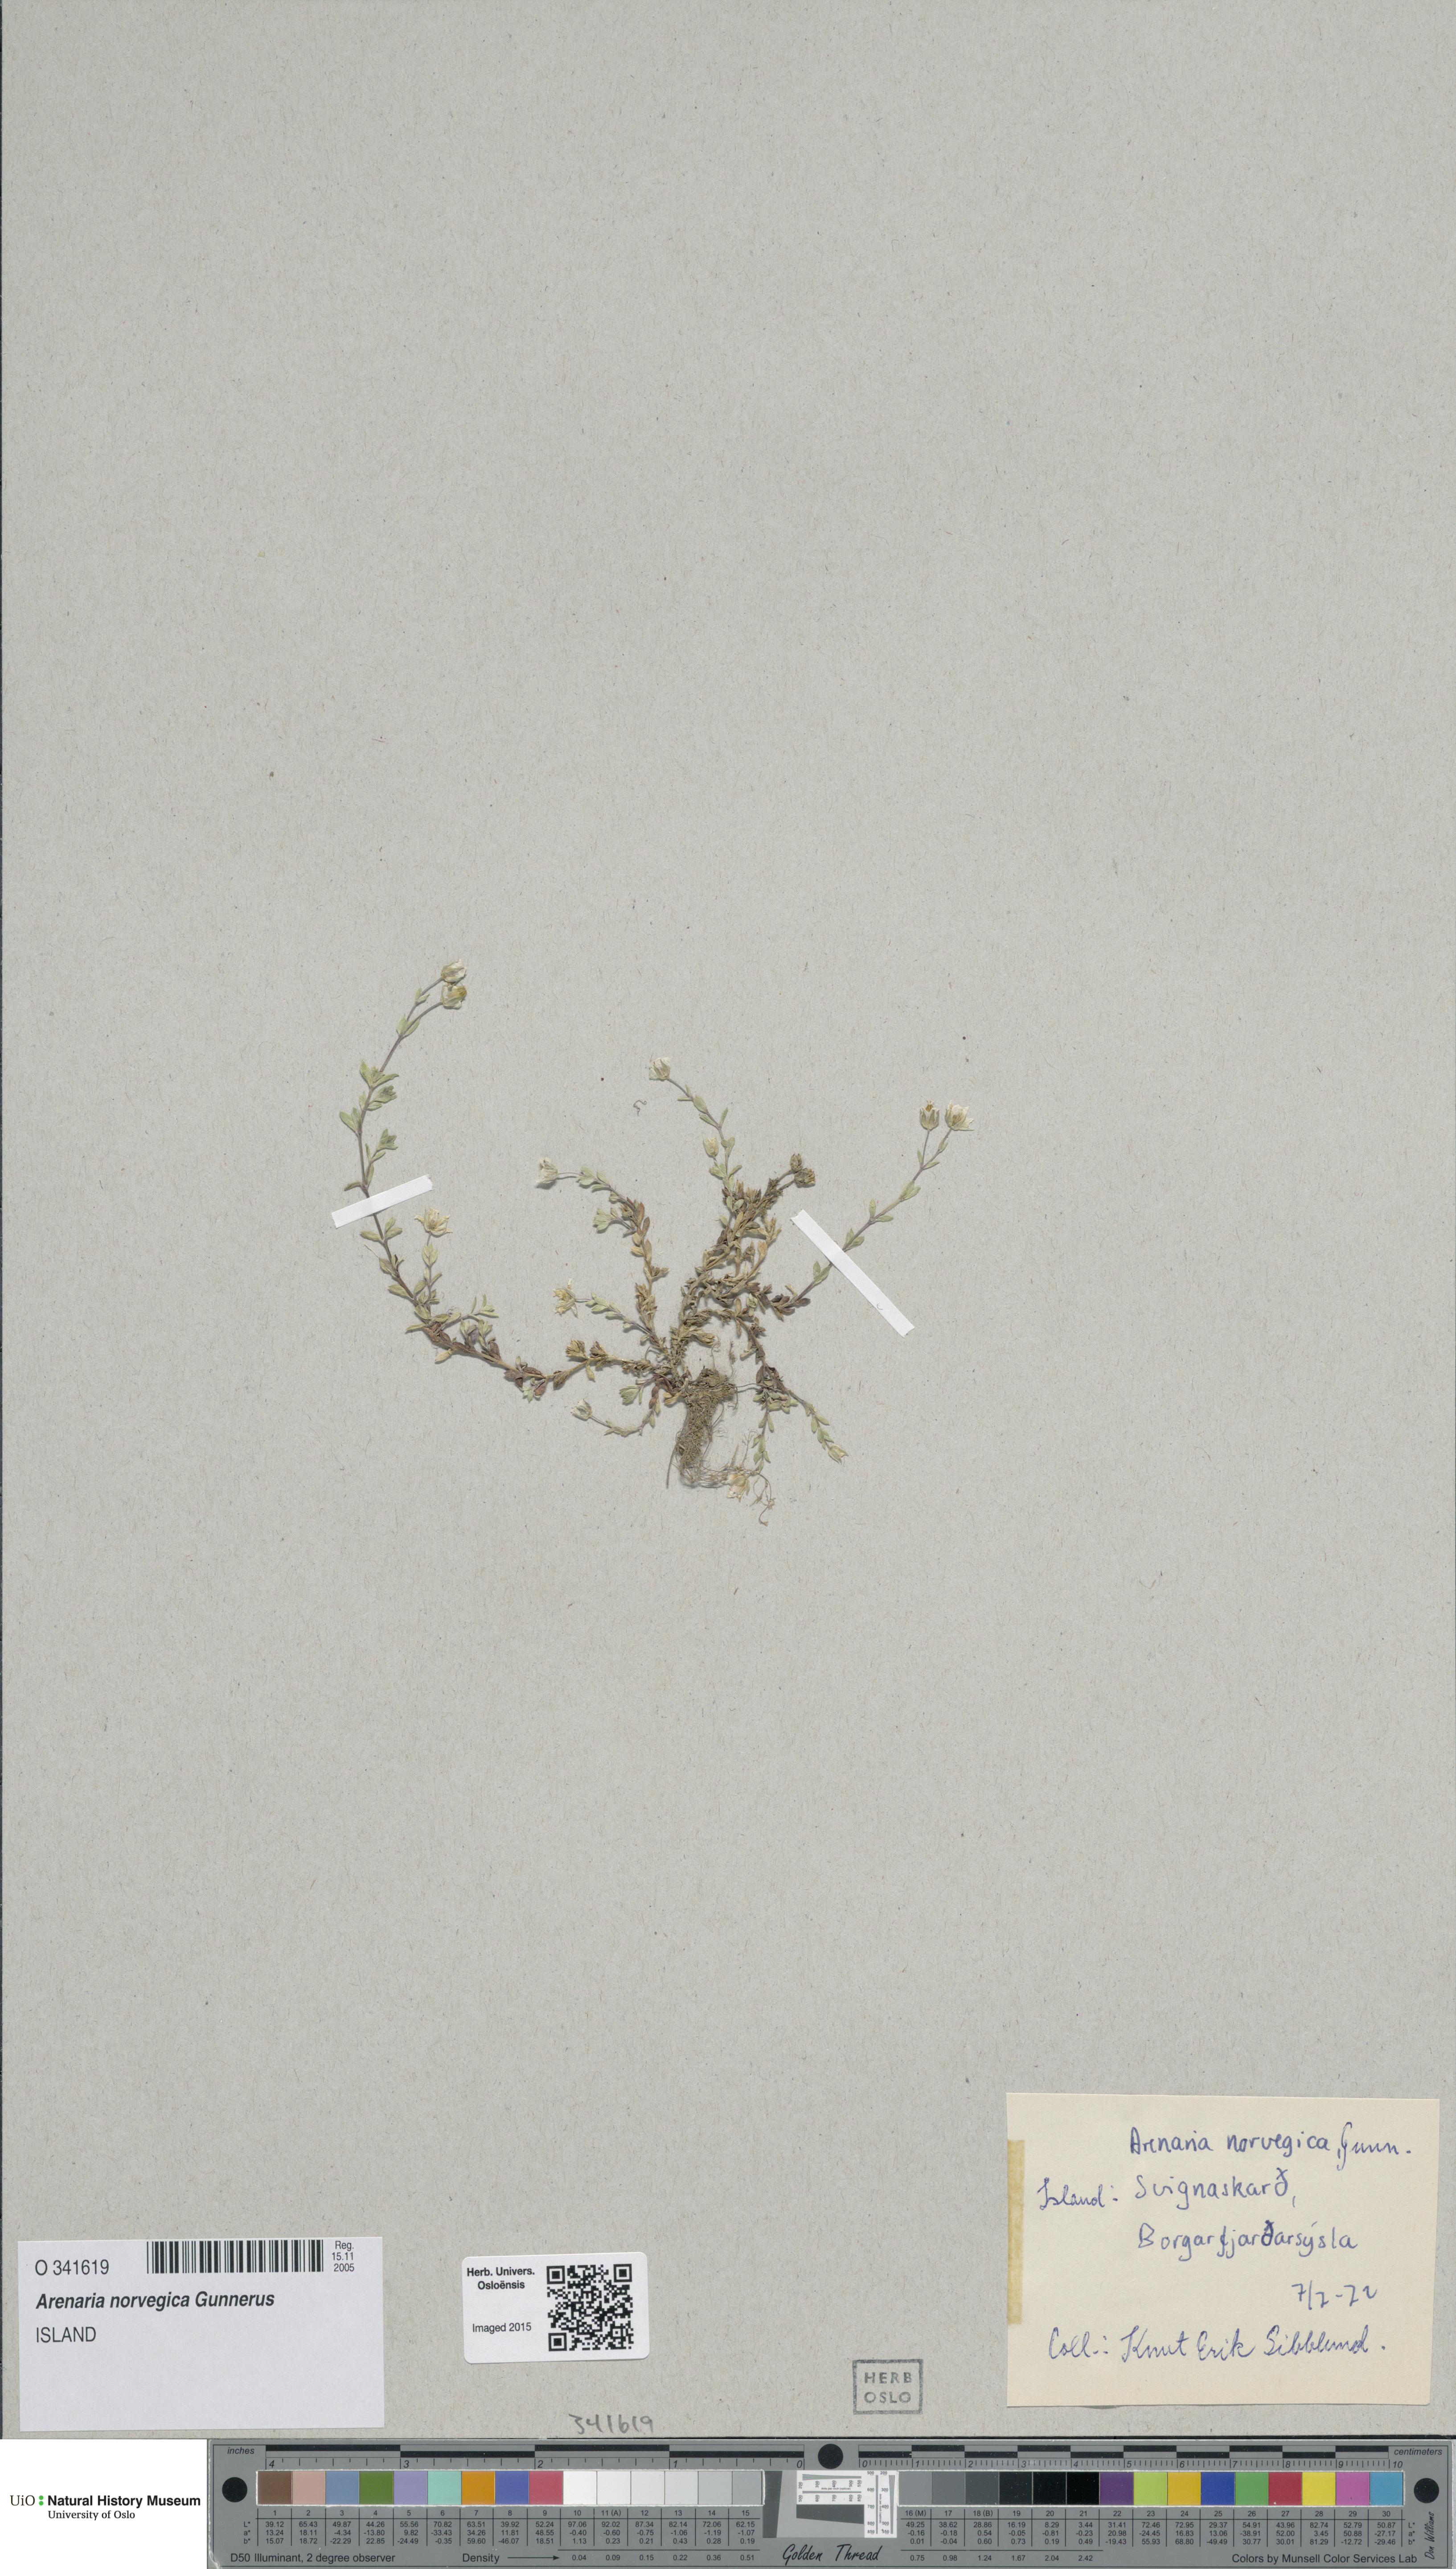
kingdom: Plantae
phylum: Tracheophyta
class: Magnoliopsida
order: Caryophyllales
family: Caryophyllaceae
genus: Arenaria
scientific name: Arenaria norvegica
